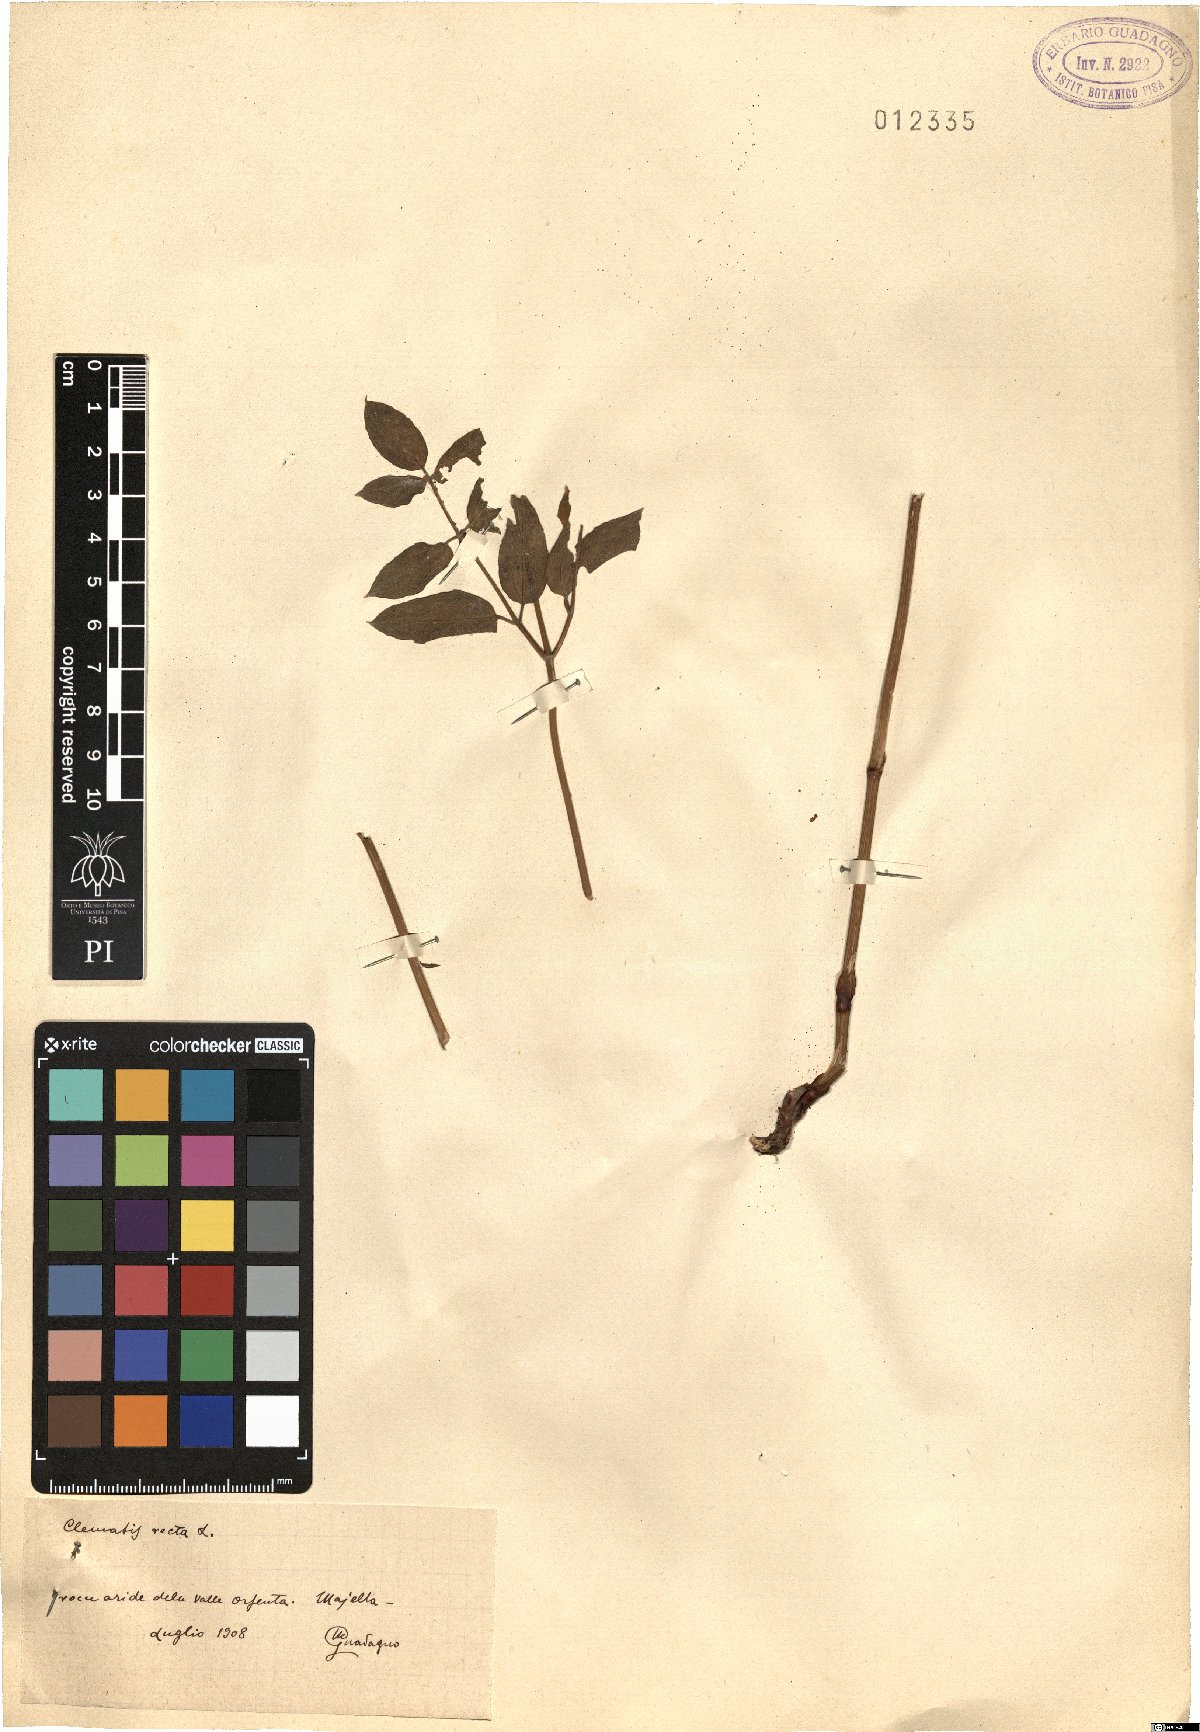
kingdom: Plantae
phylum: Tracheophyta
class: Magnoliopsida
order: Ranunculales
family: Ranunculaceae
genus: Clematis
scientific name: Clematis recta
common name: Ground clematis
